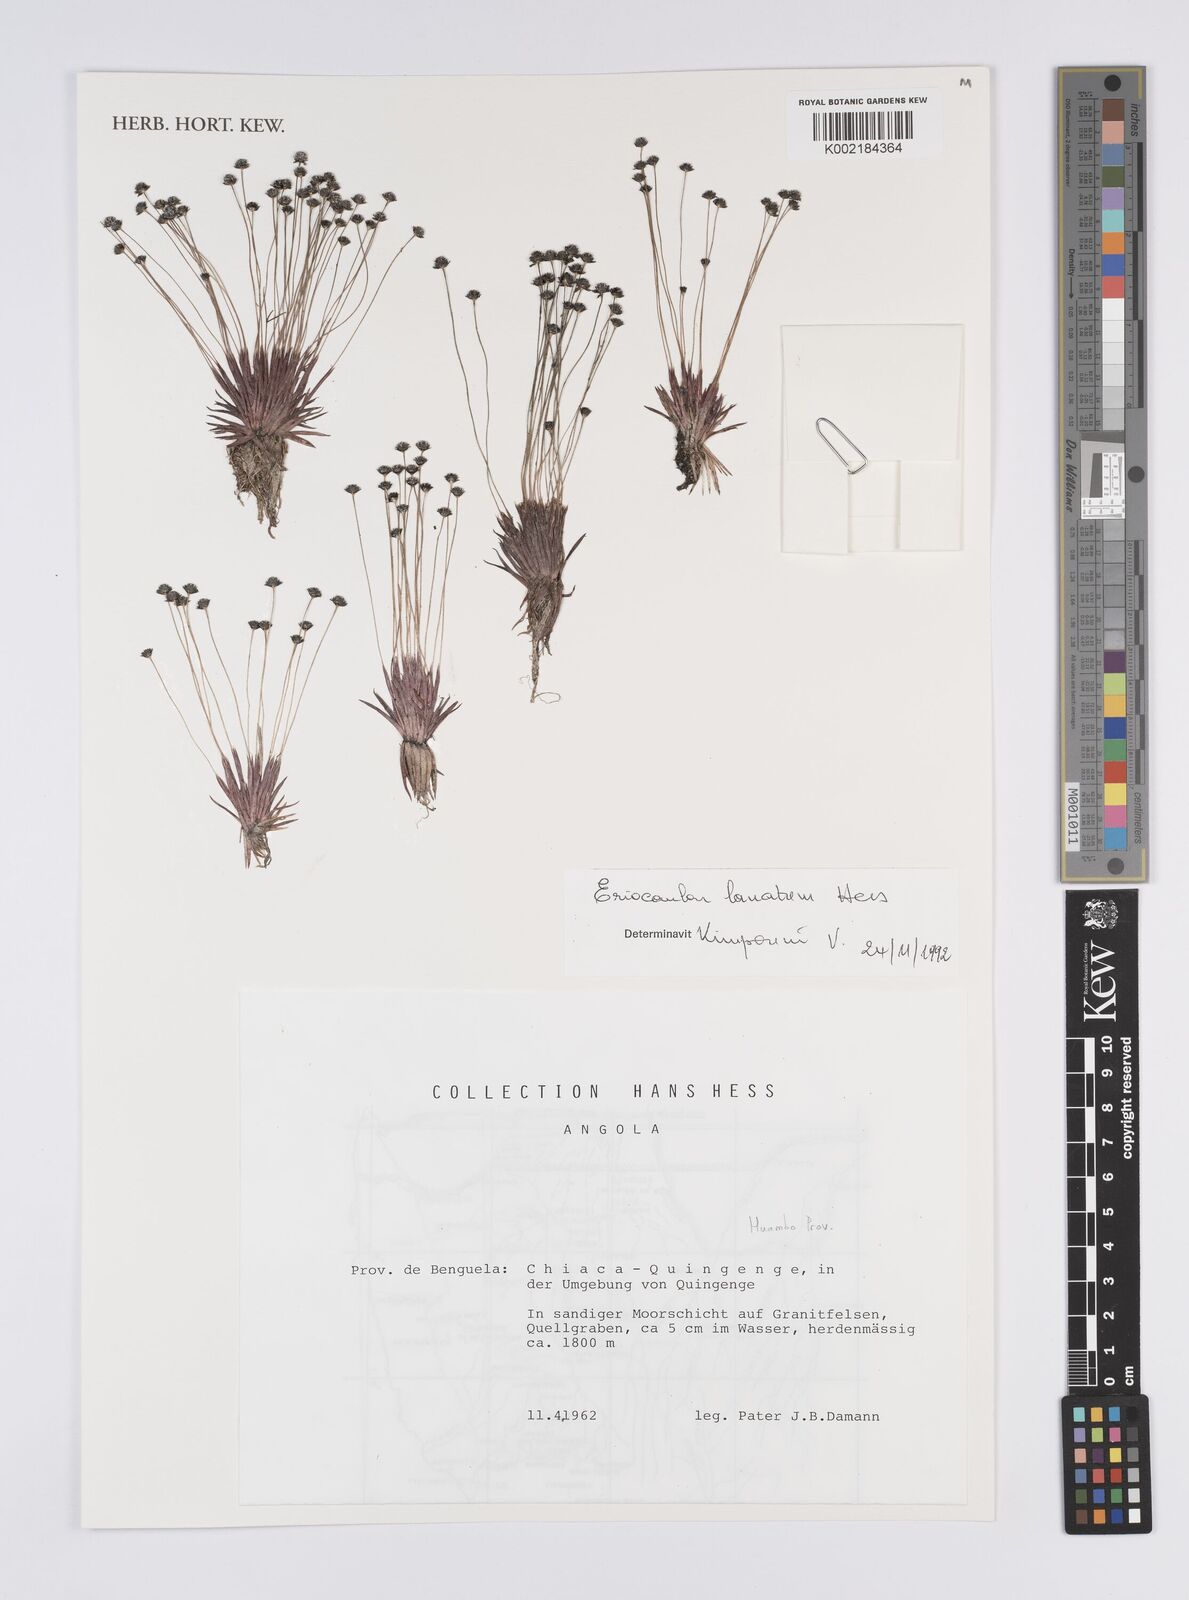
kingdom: Plantae
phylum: Tracheophyta
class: Liliopsida
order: Poales
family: Eriocaulaceae
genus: Eriocaulon
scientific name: Eriocaulon lanatum
